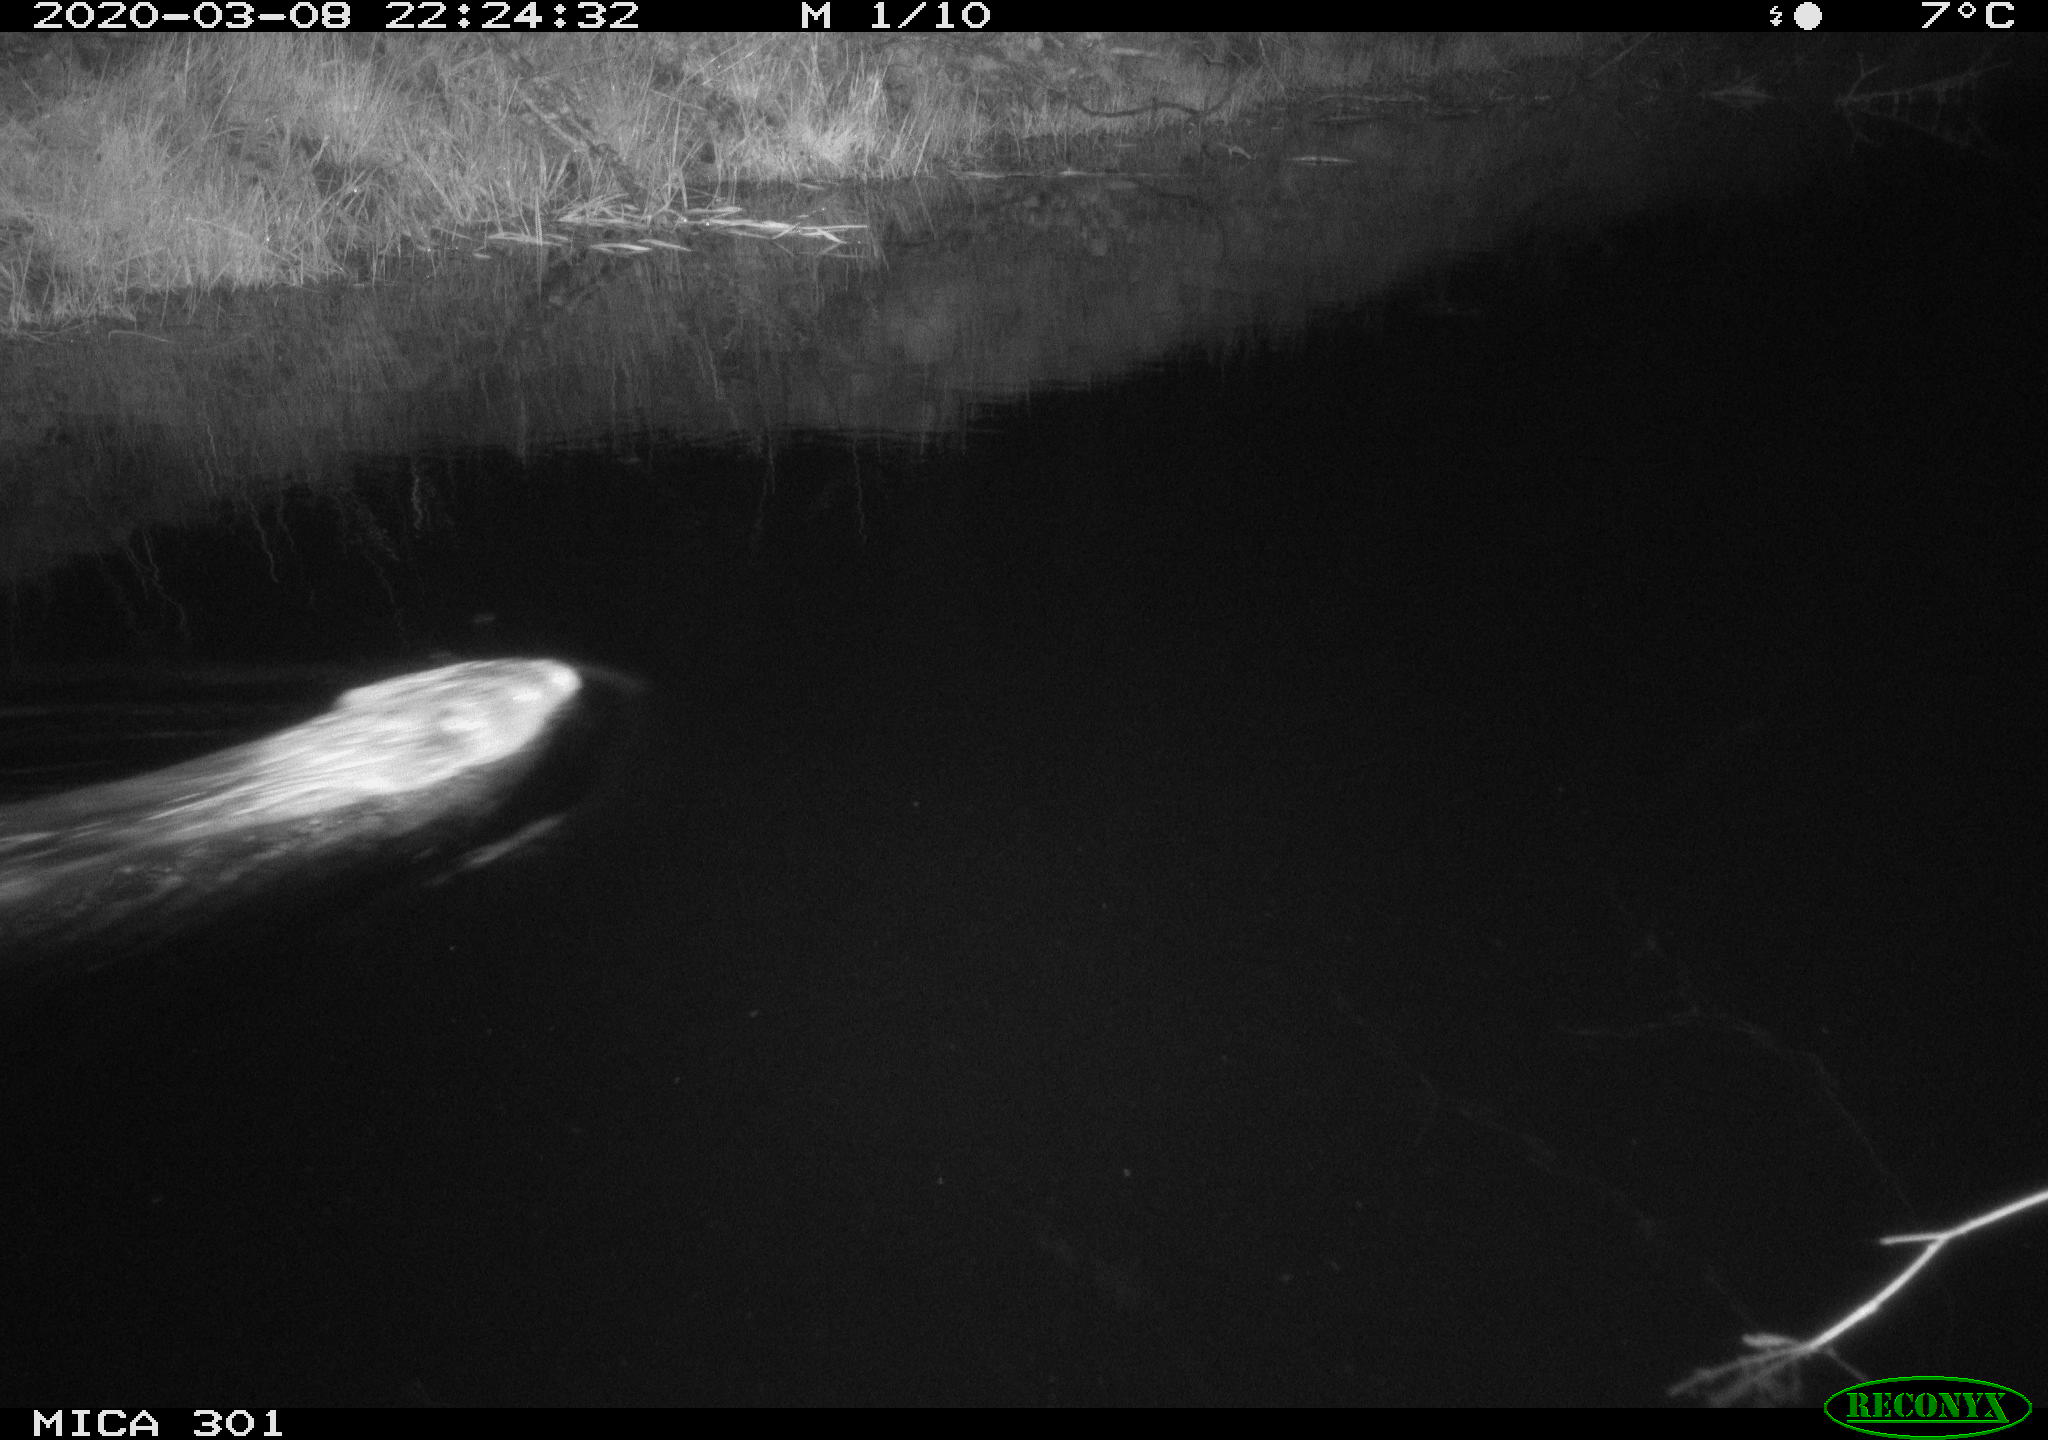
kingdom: Animalia
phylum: Chordata
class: Mammalia
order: Rodentia
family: Castoridae
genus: Castor
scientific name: Castor fiber
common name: Eurasian beaver
